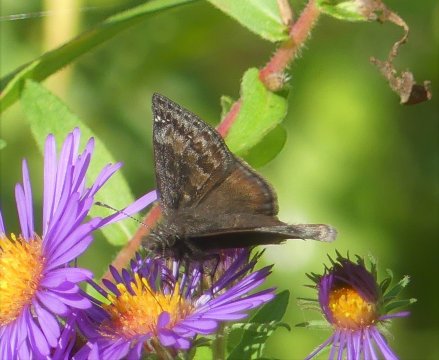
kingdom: Animalia
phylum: Arthropoda
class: Insecta
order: Lepidoptera
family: Hesperiidae
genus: Gesta
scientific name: Gesta
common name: Wild Indigo Duskywing
